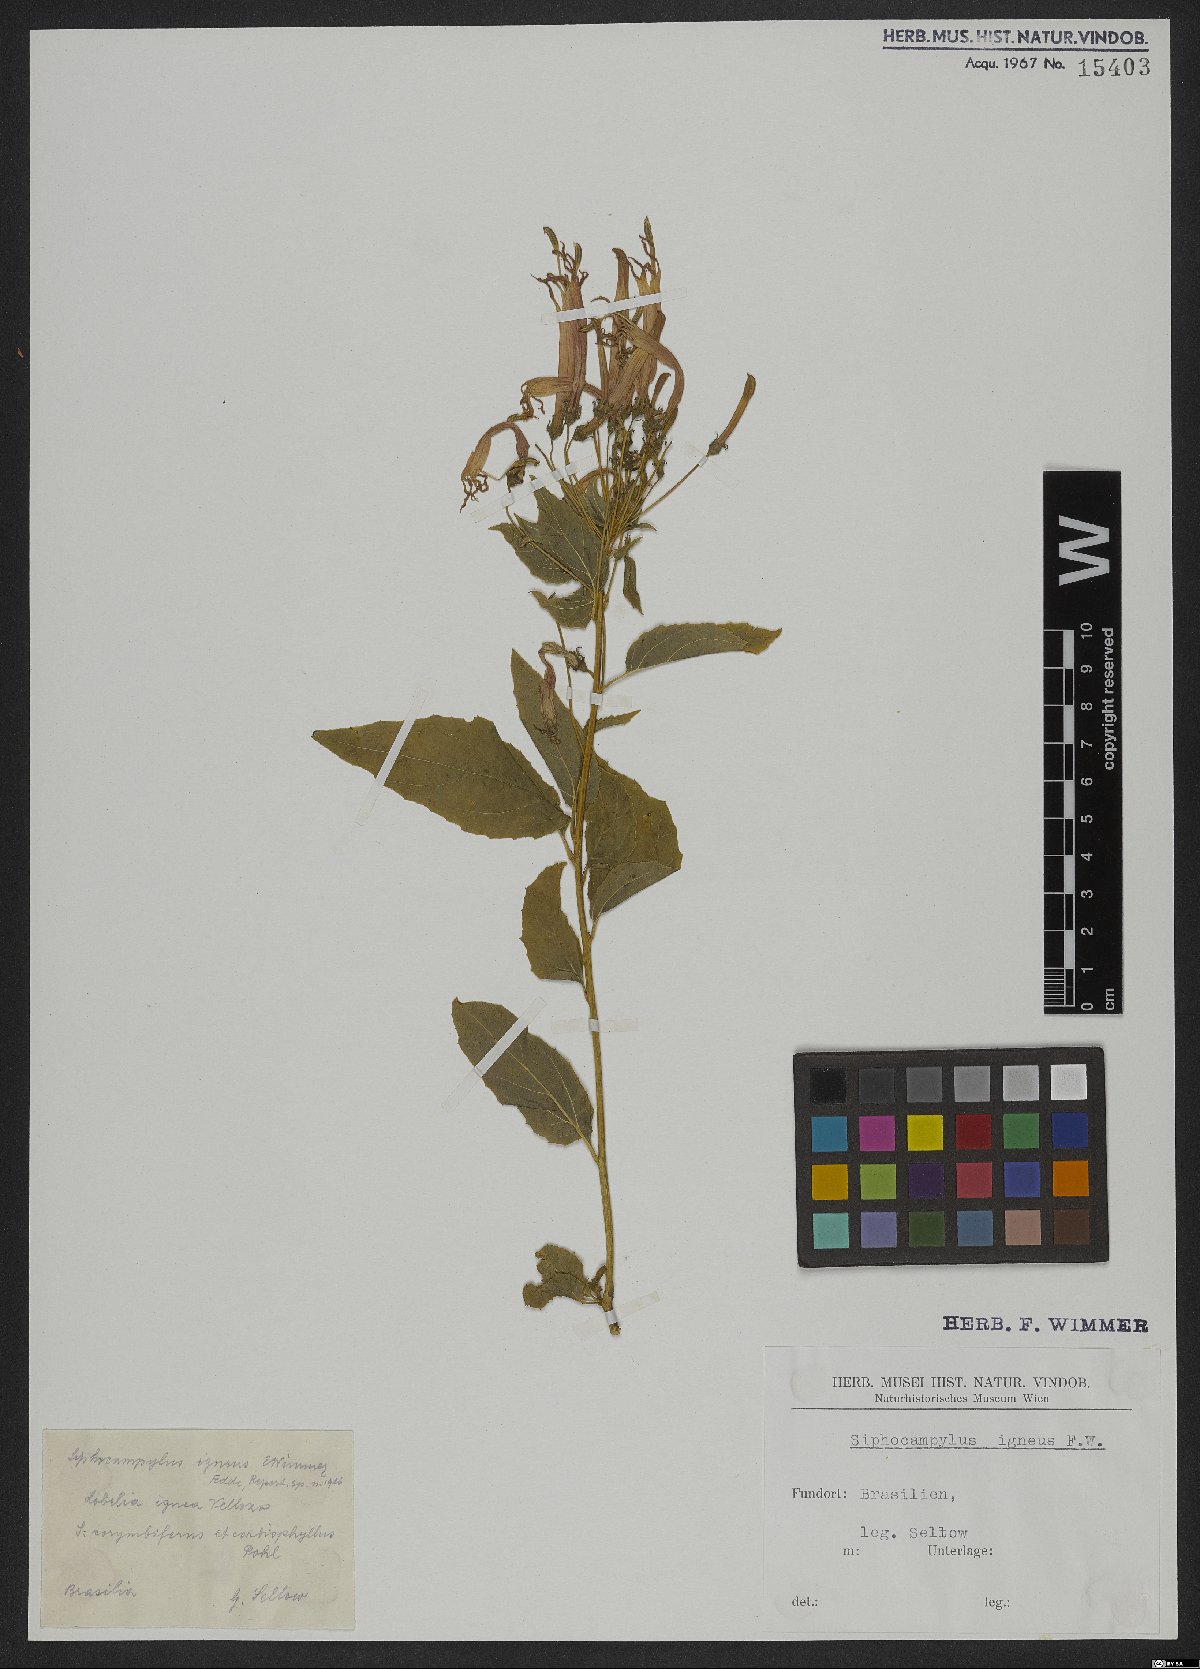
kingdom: Plantae
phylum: Tracheophyta
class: Magnoliopsida
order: Asterales
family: Campanulaceae
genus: Siphocampylus
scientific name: Siphocampylus corymbifer
